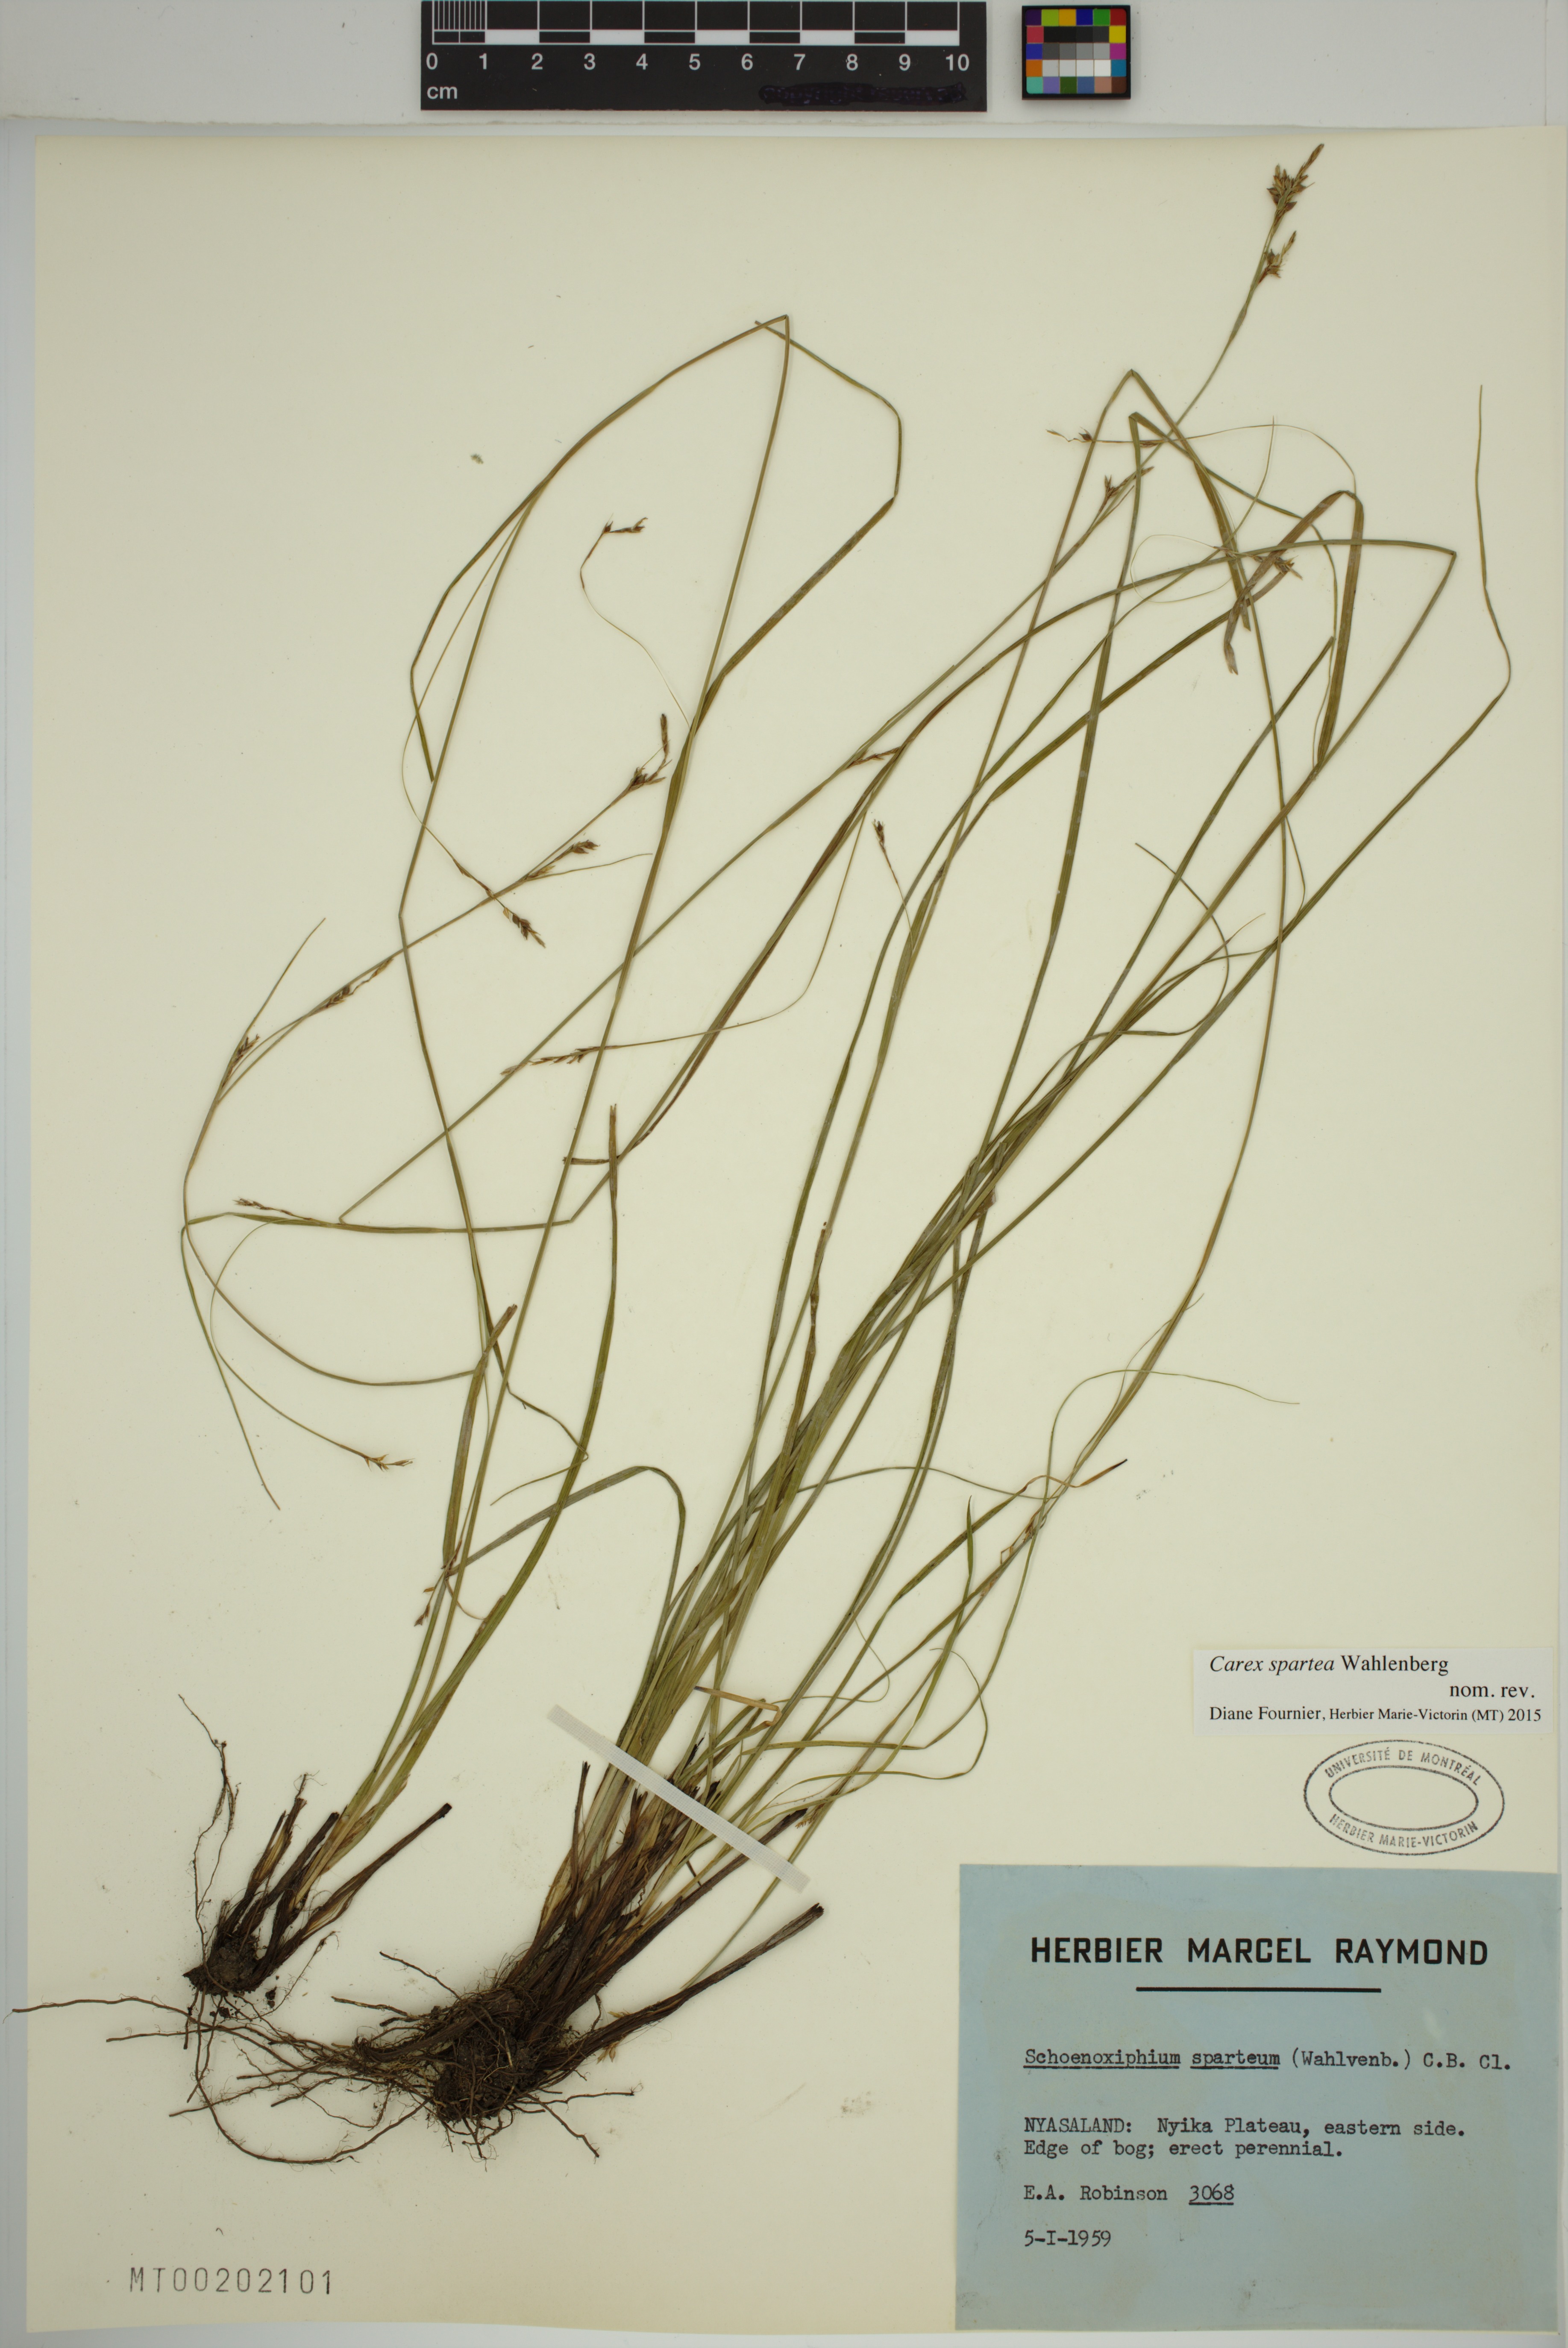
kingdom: Plantae
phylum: Tracheophyta
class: Liliopsida
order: Poales
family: Cyperaceae
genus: Carex
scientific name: Carex spartea
